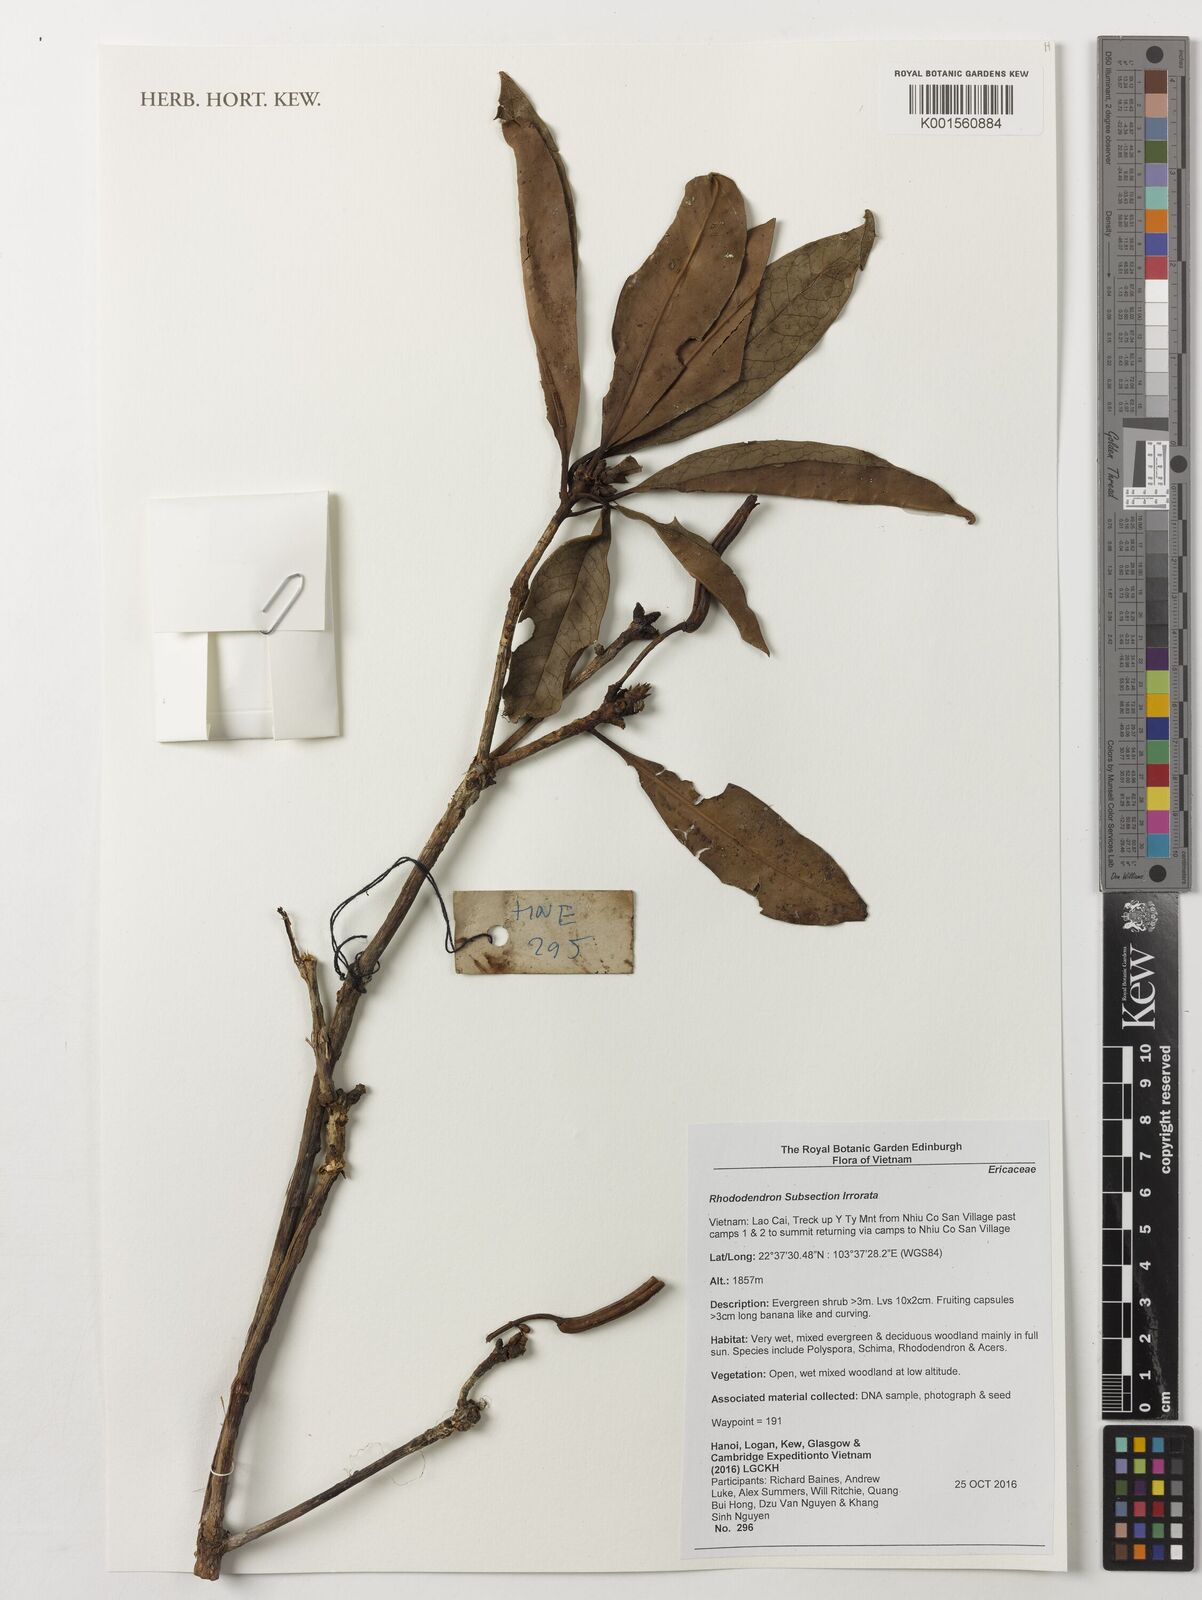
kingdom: Plantae
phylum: Tracheophyta
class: Magnoliopsida
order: Ericales
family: Ericaceae
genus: Rhododendron
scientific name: Rhododendron irroratum
